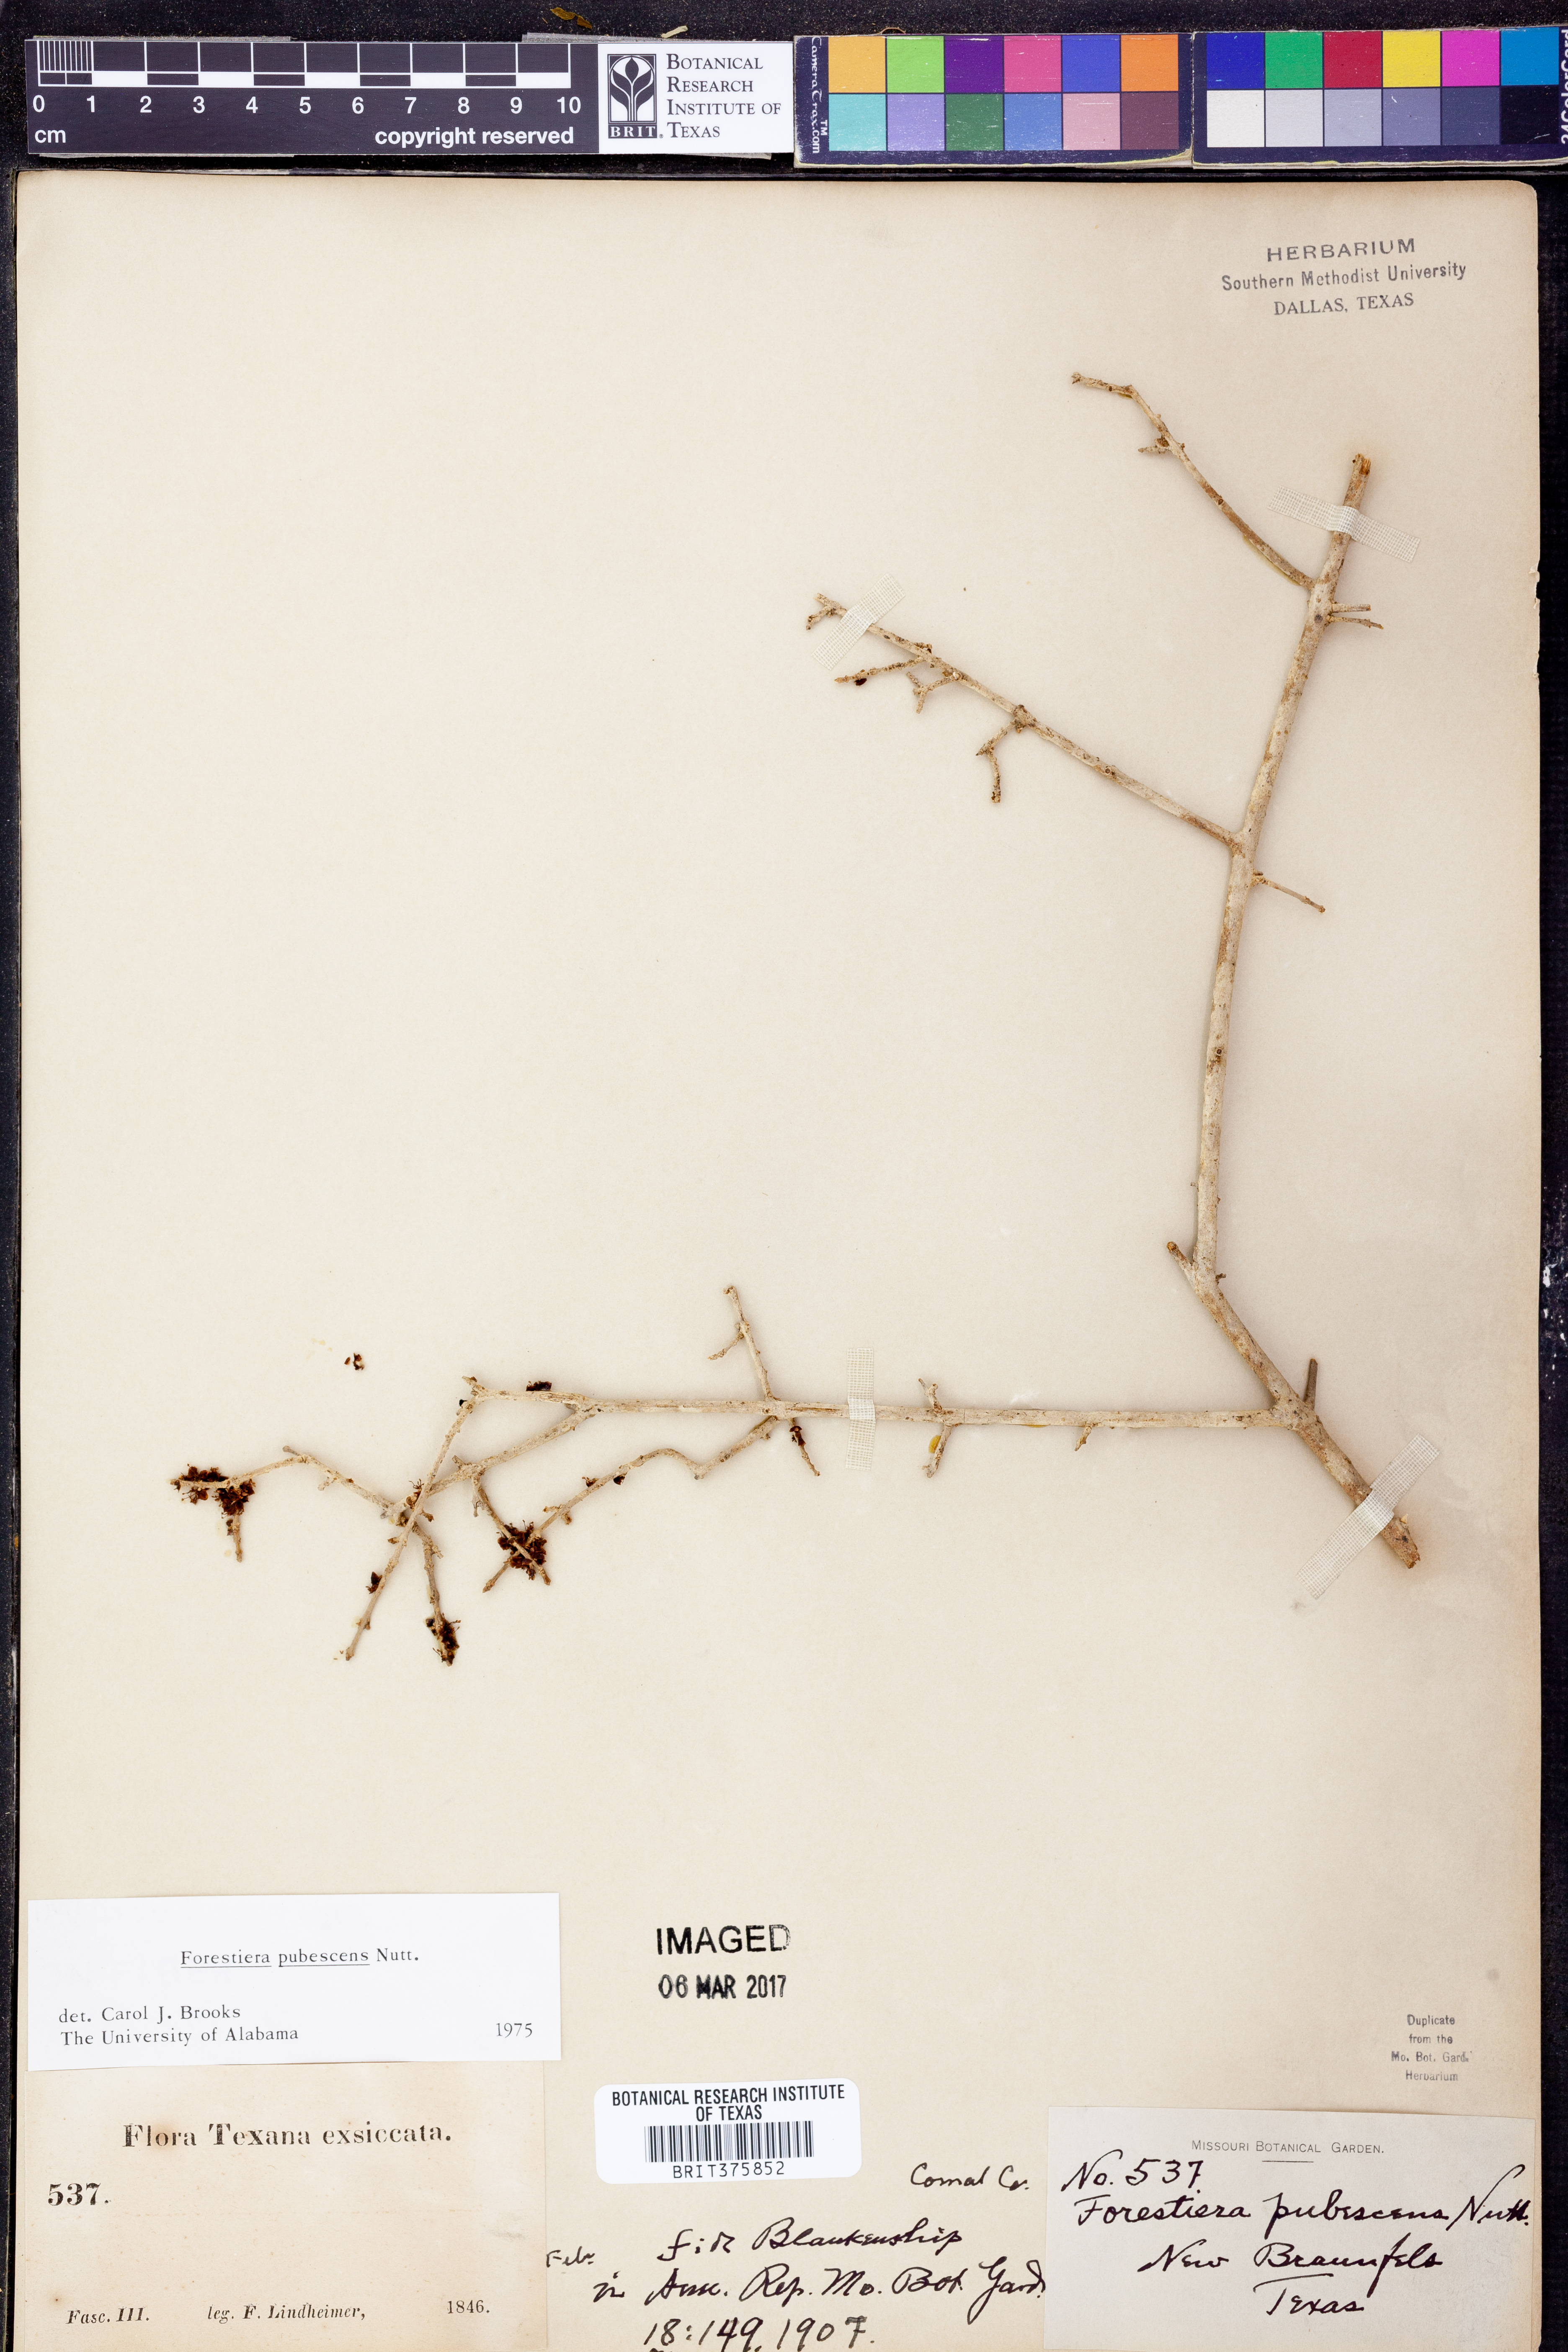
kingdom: Plantae
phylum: Tracheophyta
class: Magnoliopsida
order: Lamiales
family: Oleaceae
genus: Forestiera
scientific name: Forestiera pubescens
